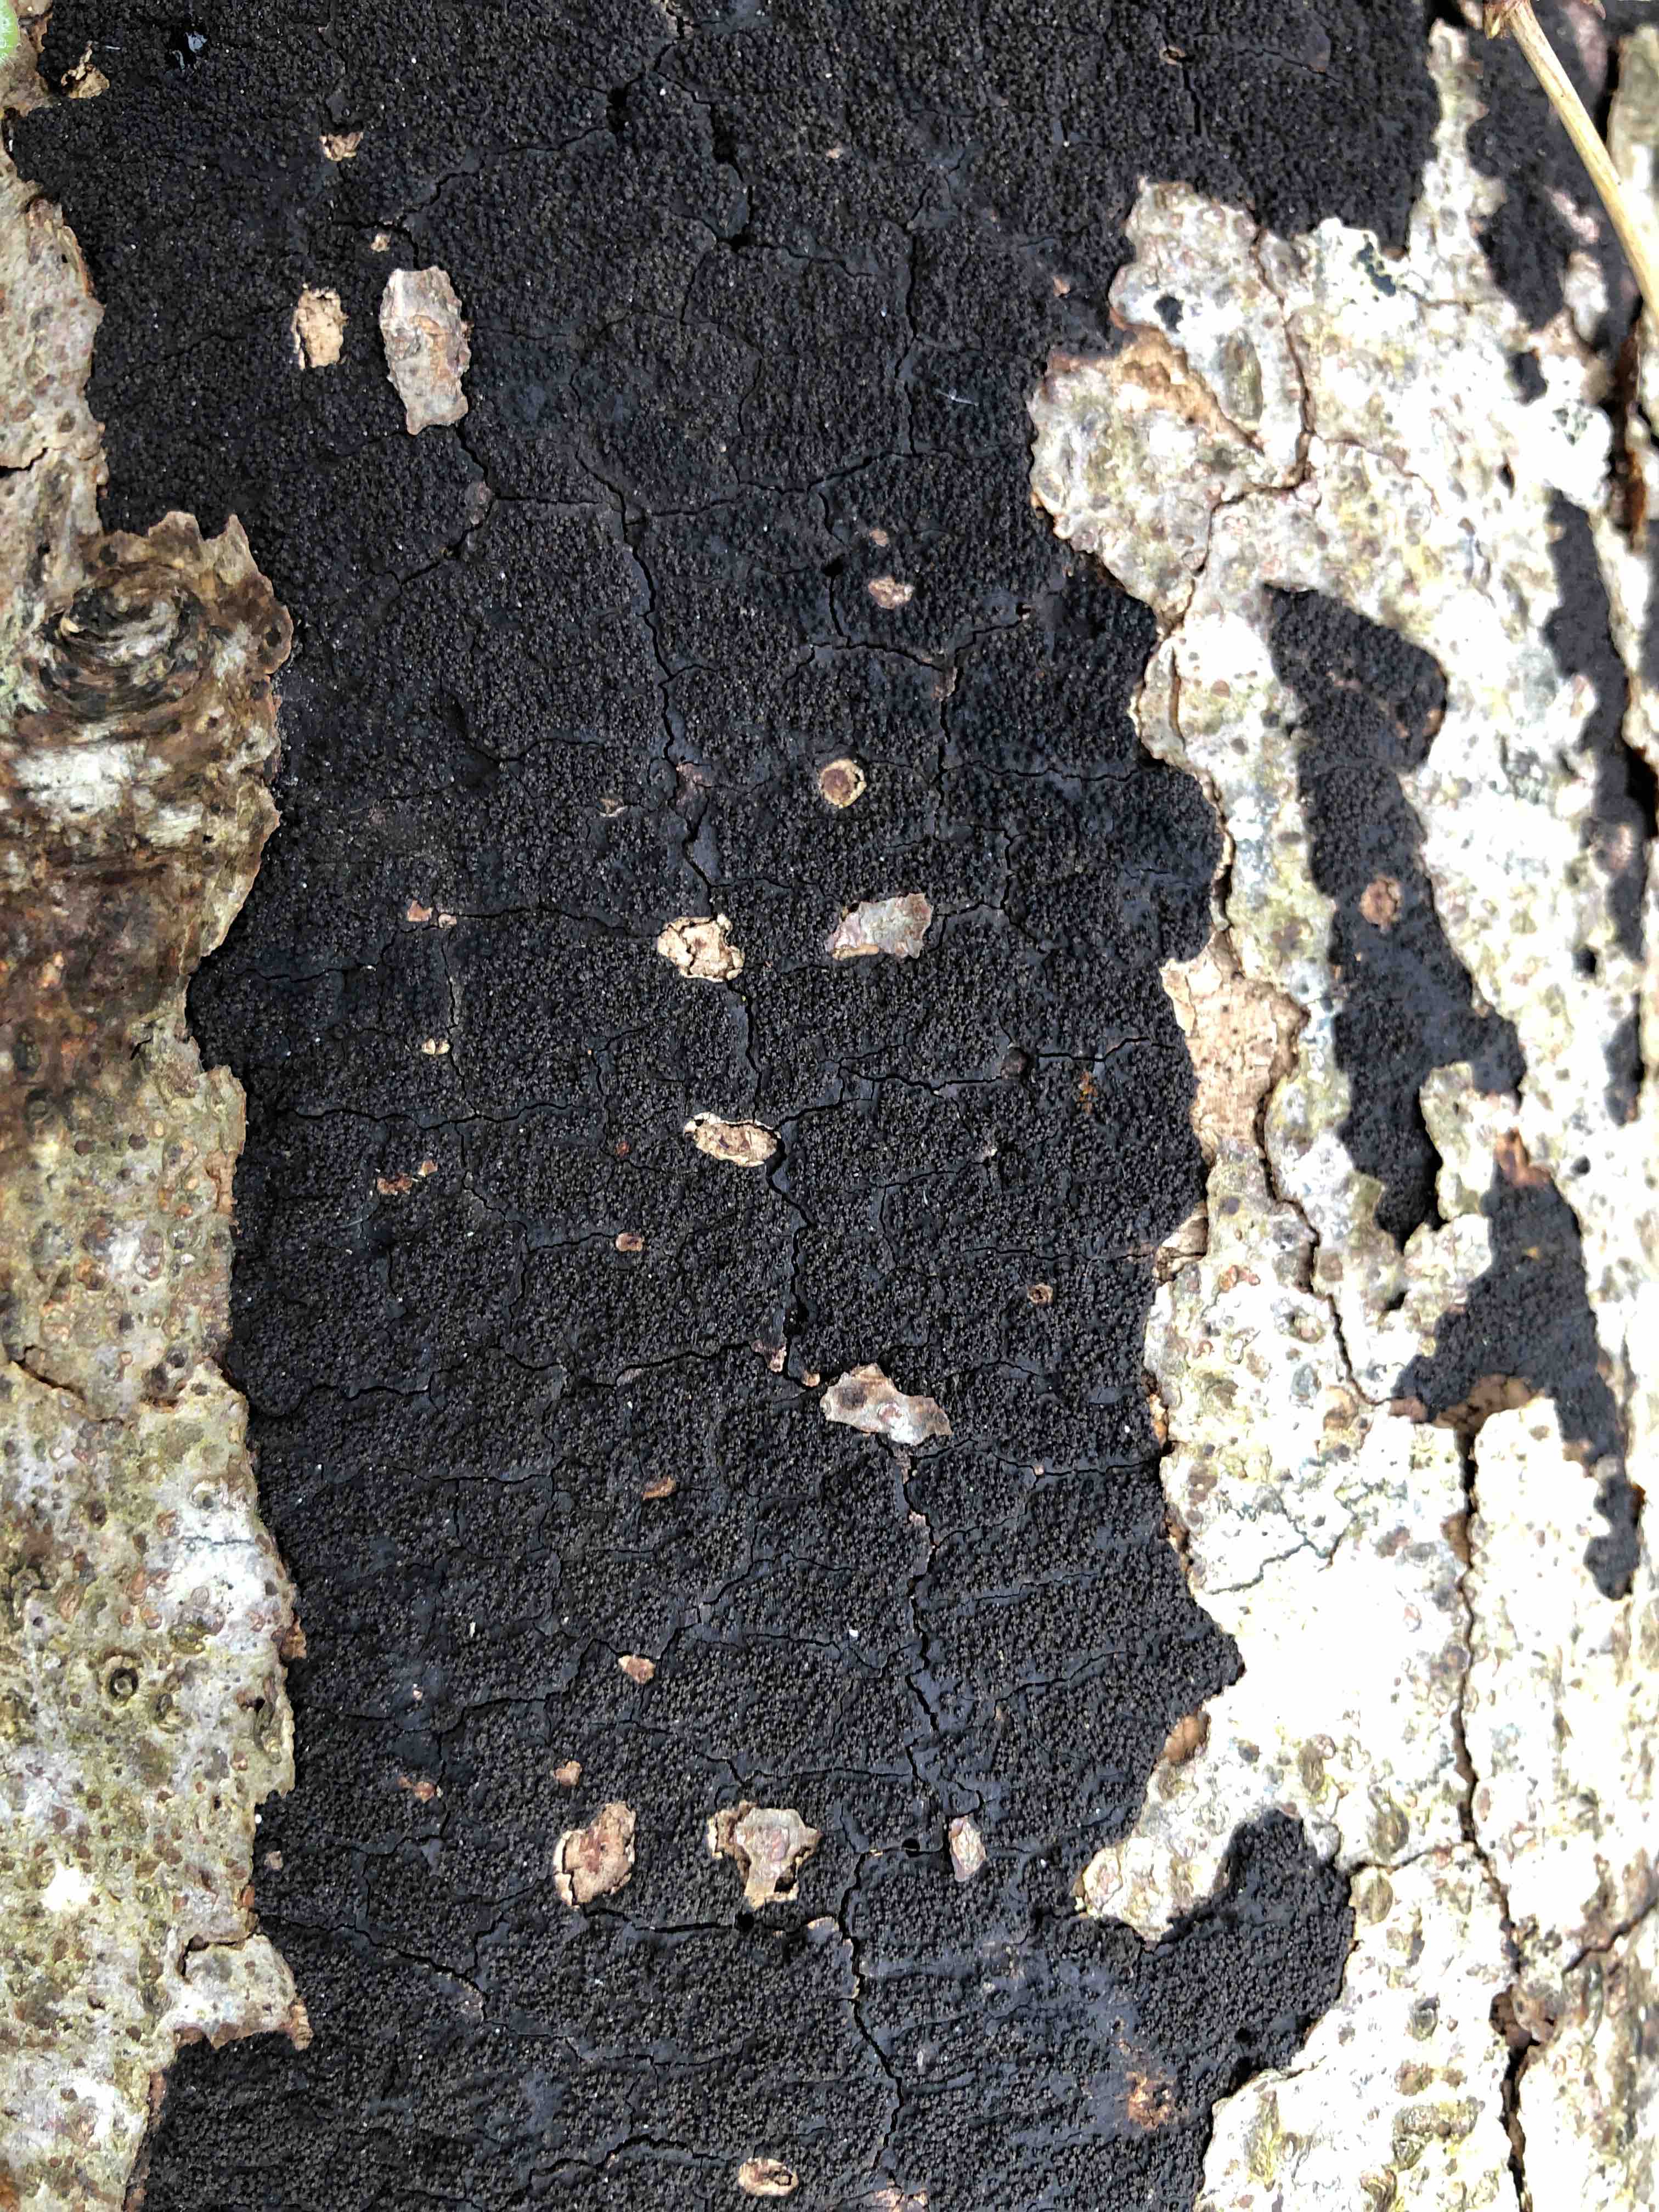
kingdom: Fungi
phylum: Ascomycota
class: Sordariomycetes
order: Xylariales
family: Diatrypaceae
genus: Eutypa
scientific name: Eutypa spinosa
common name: grov kulskorpe
